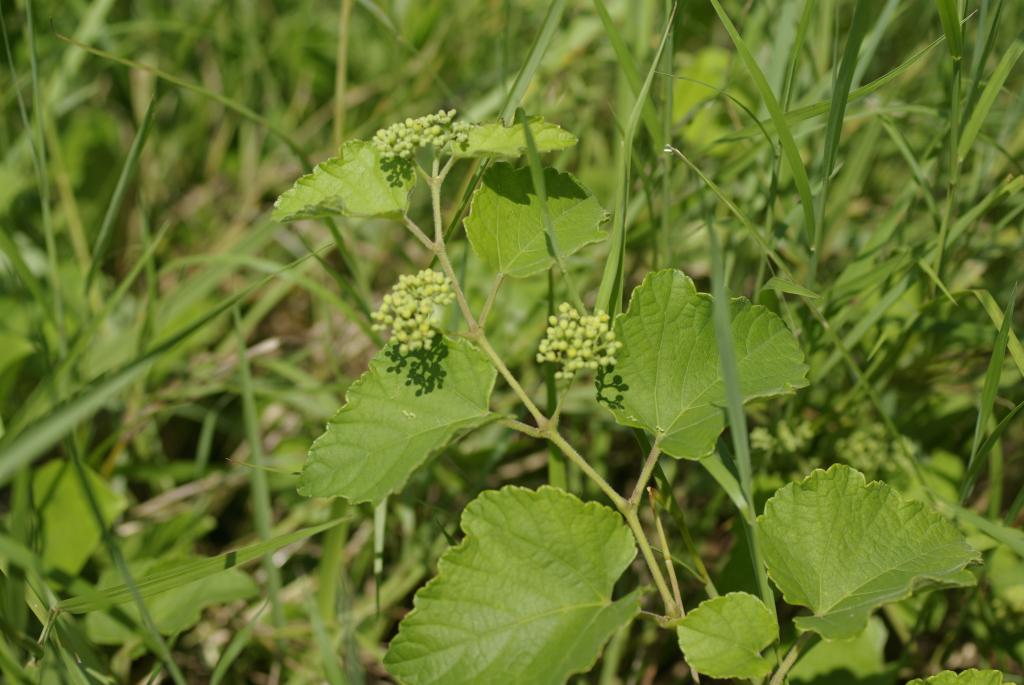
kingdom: Plantae
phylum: Tracheophyta
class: Magnoliopsida
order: Vitales
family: Vitaceae
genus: Ampelopsis
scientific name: Ampelopsis glandulosa
